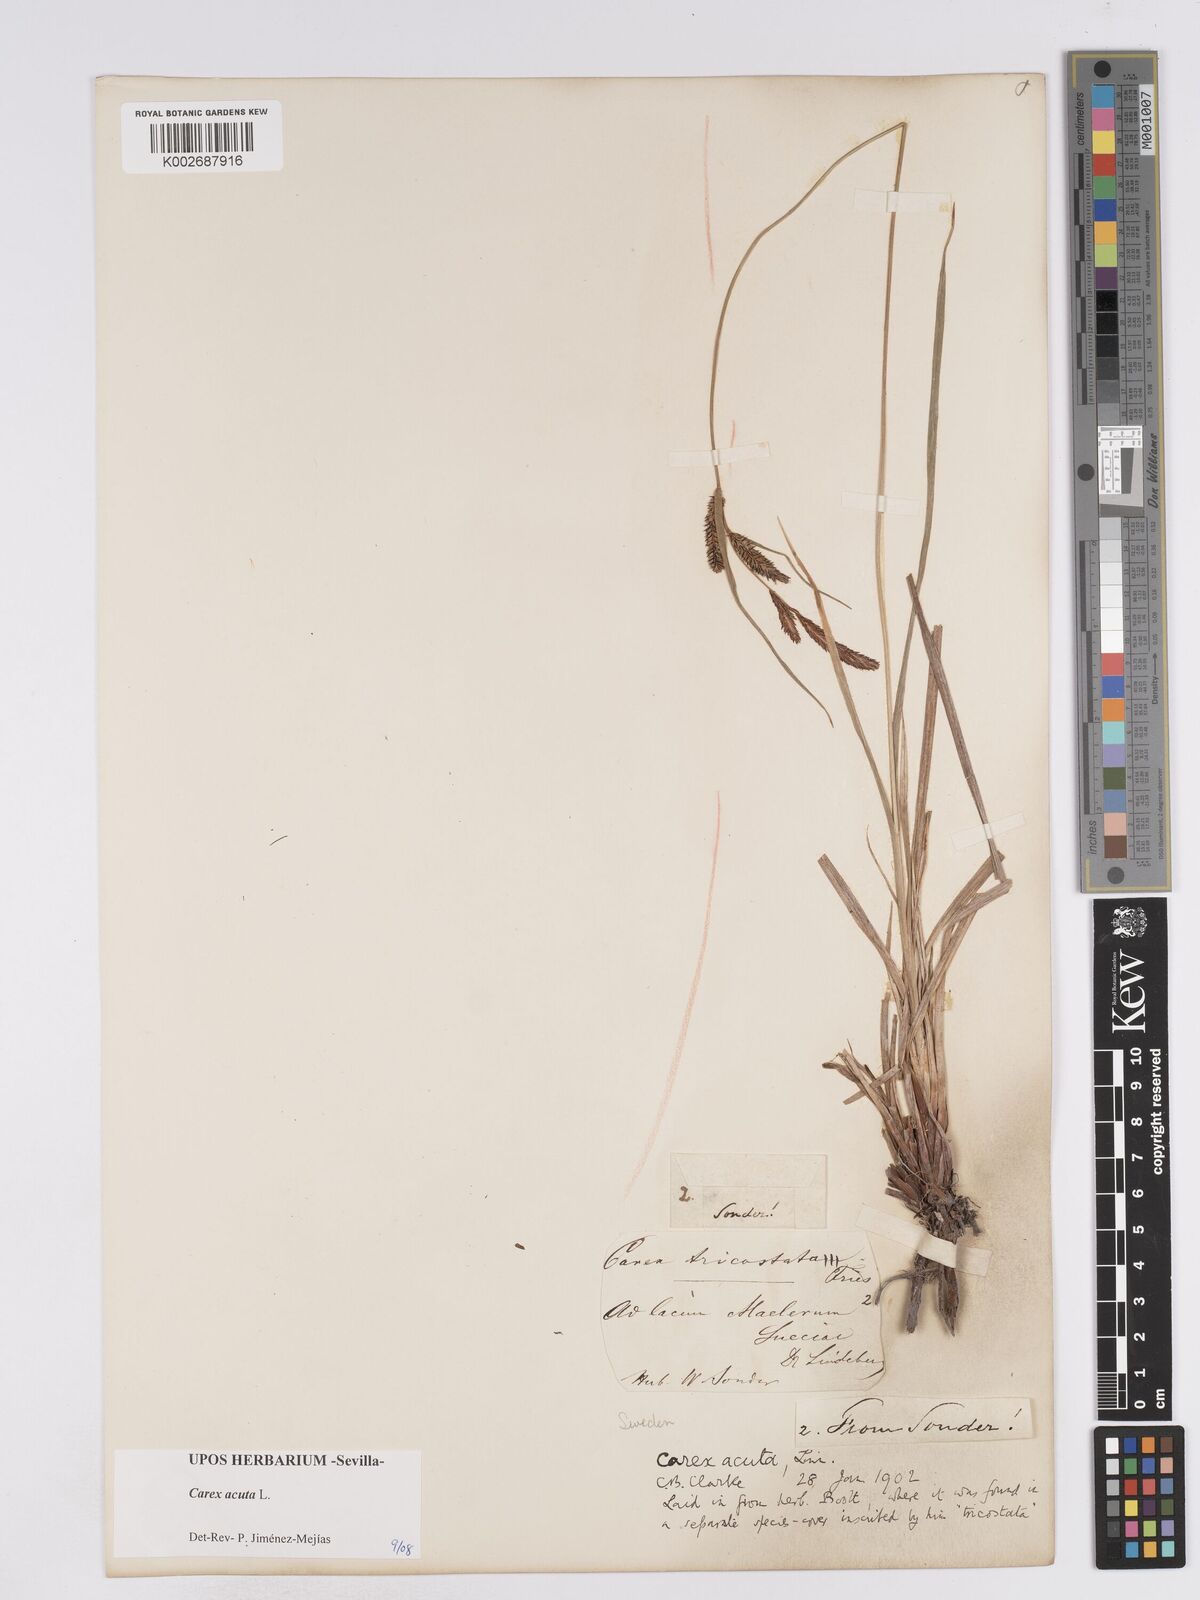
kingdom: Plantae
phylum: Tracheophyta
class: Liliopsida
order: Poales
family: Cyperaceae
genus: Carex
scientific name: Carex acuta
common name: Slender tufted-sedge
